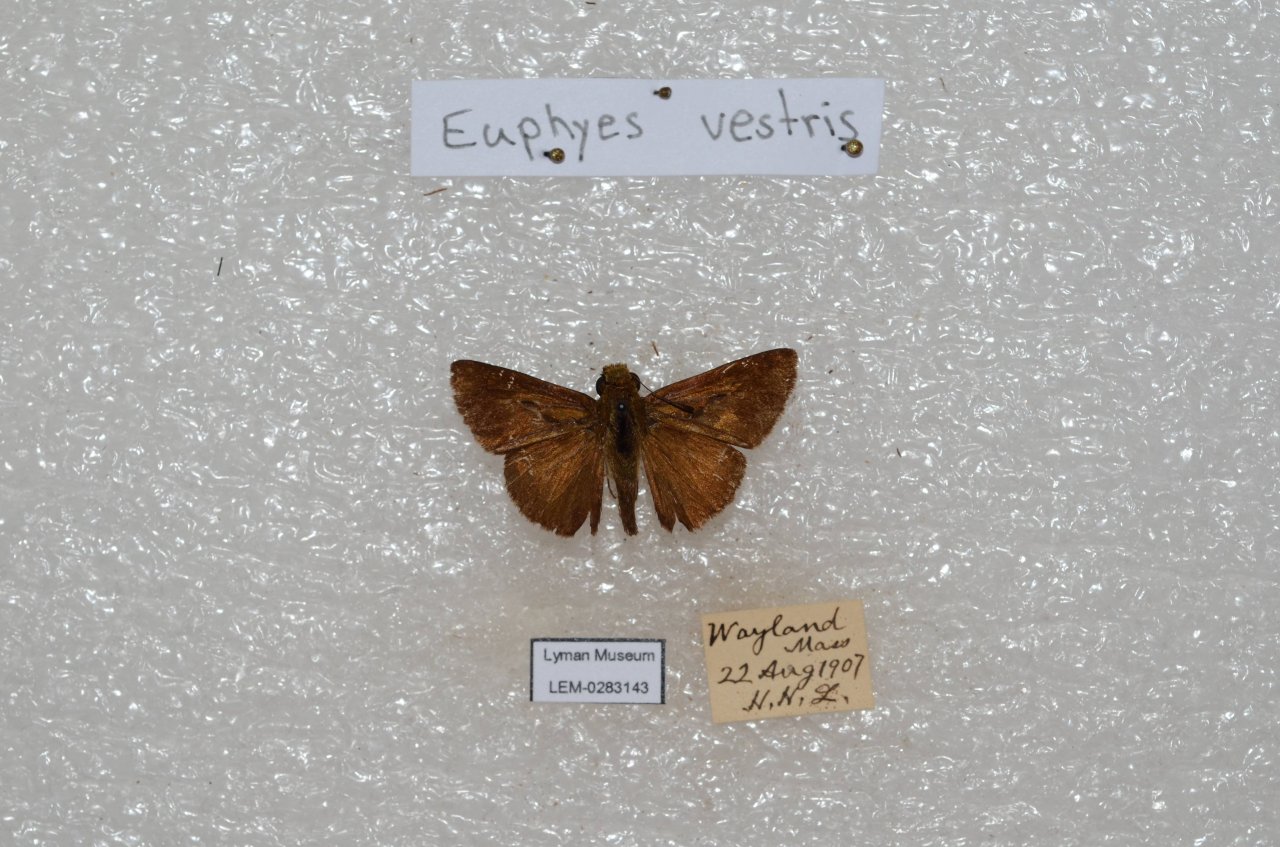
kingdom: Animalia
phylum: Arthropoda
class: Insecta
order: Lepidoptera
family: Hesperiidae
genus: Euphyes
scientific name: Euphyes vestris
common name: Dun Skipper
